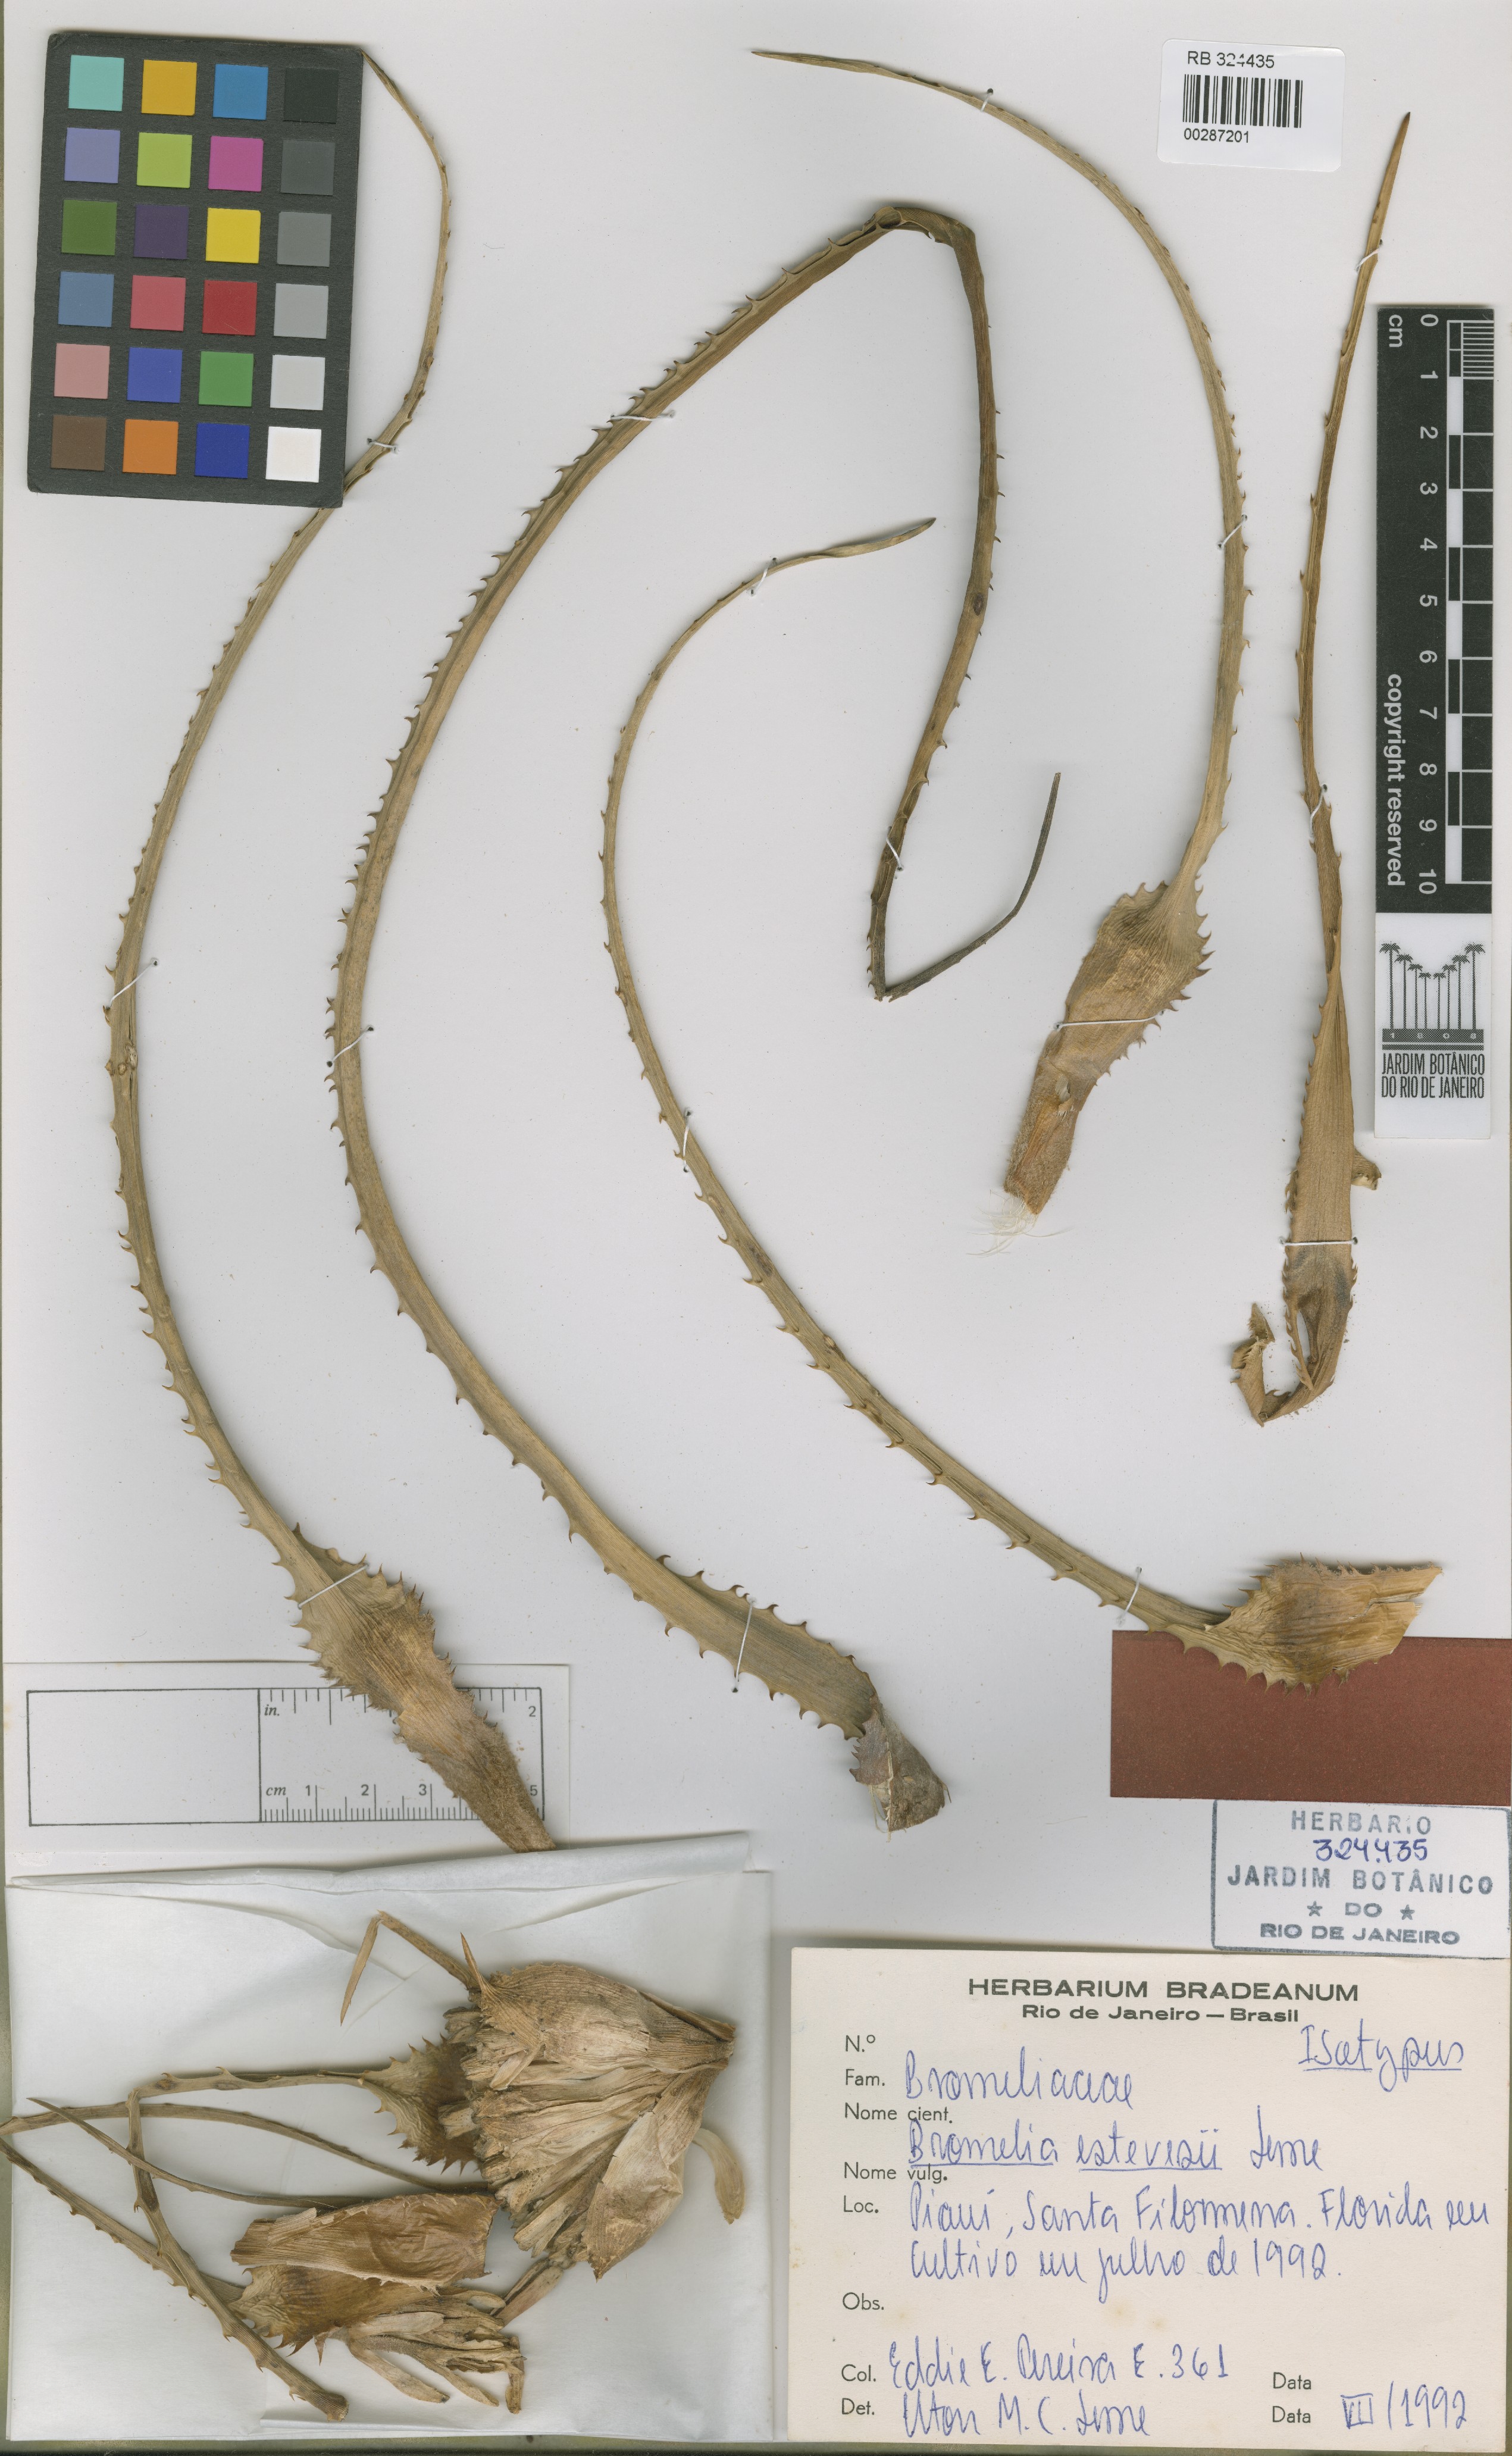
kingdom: Plantae
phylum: Tracheophyta
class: Liliopsida
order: Poales
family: Bromeliaceae
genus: Bromelia
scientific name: Bromelia estevesii
